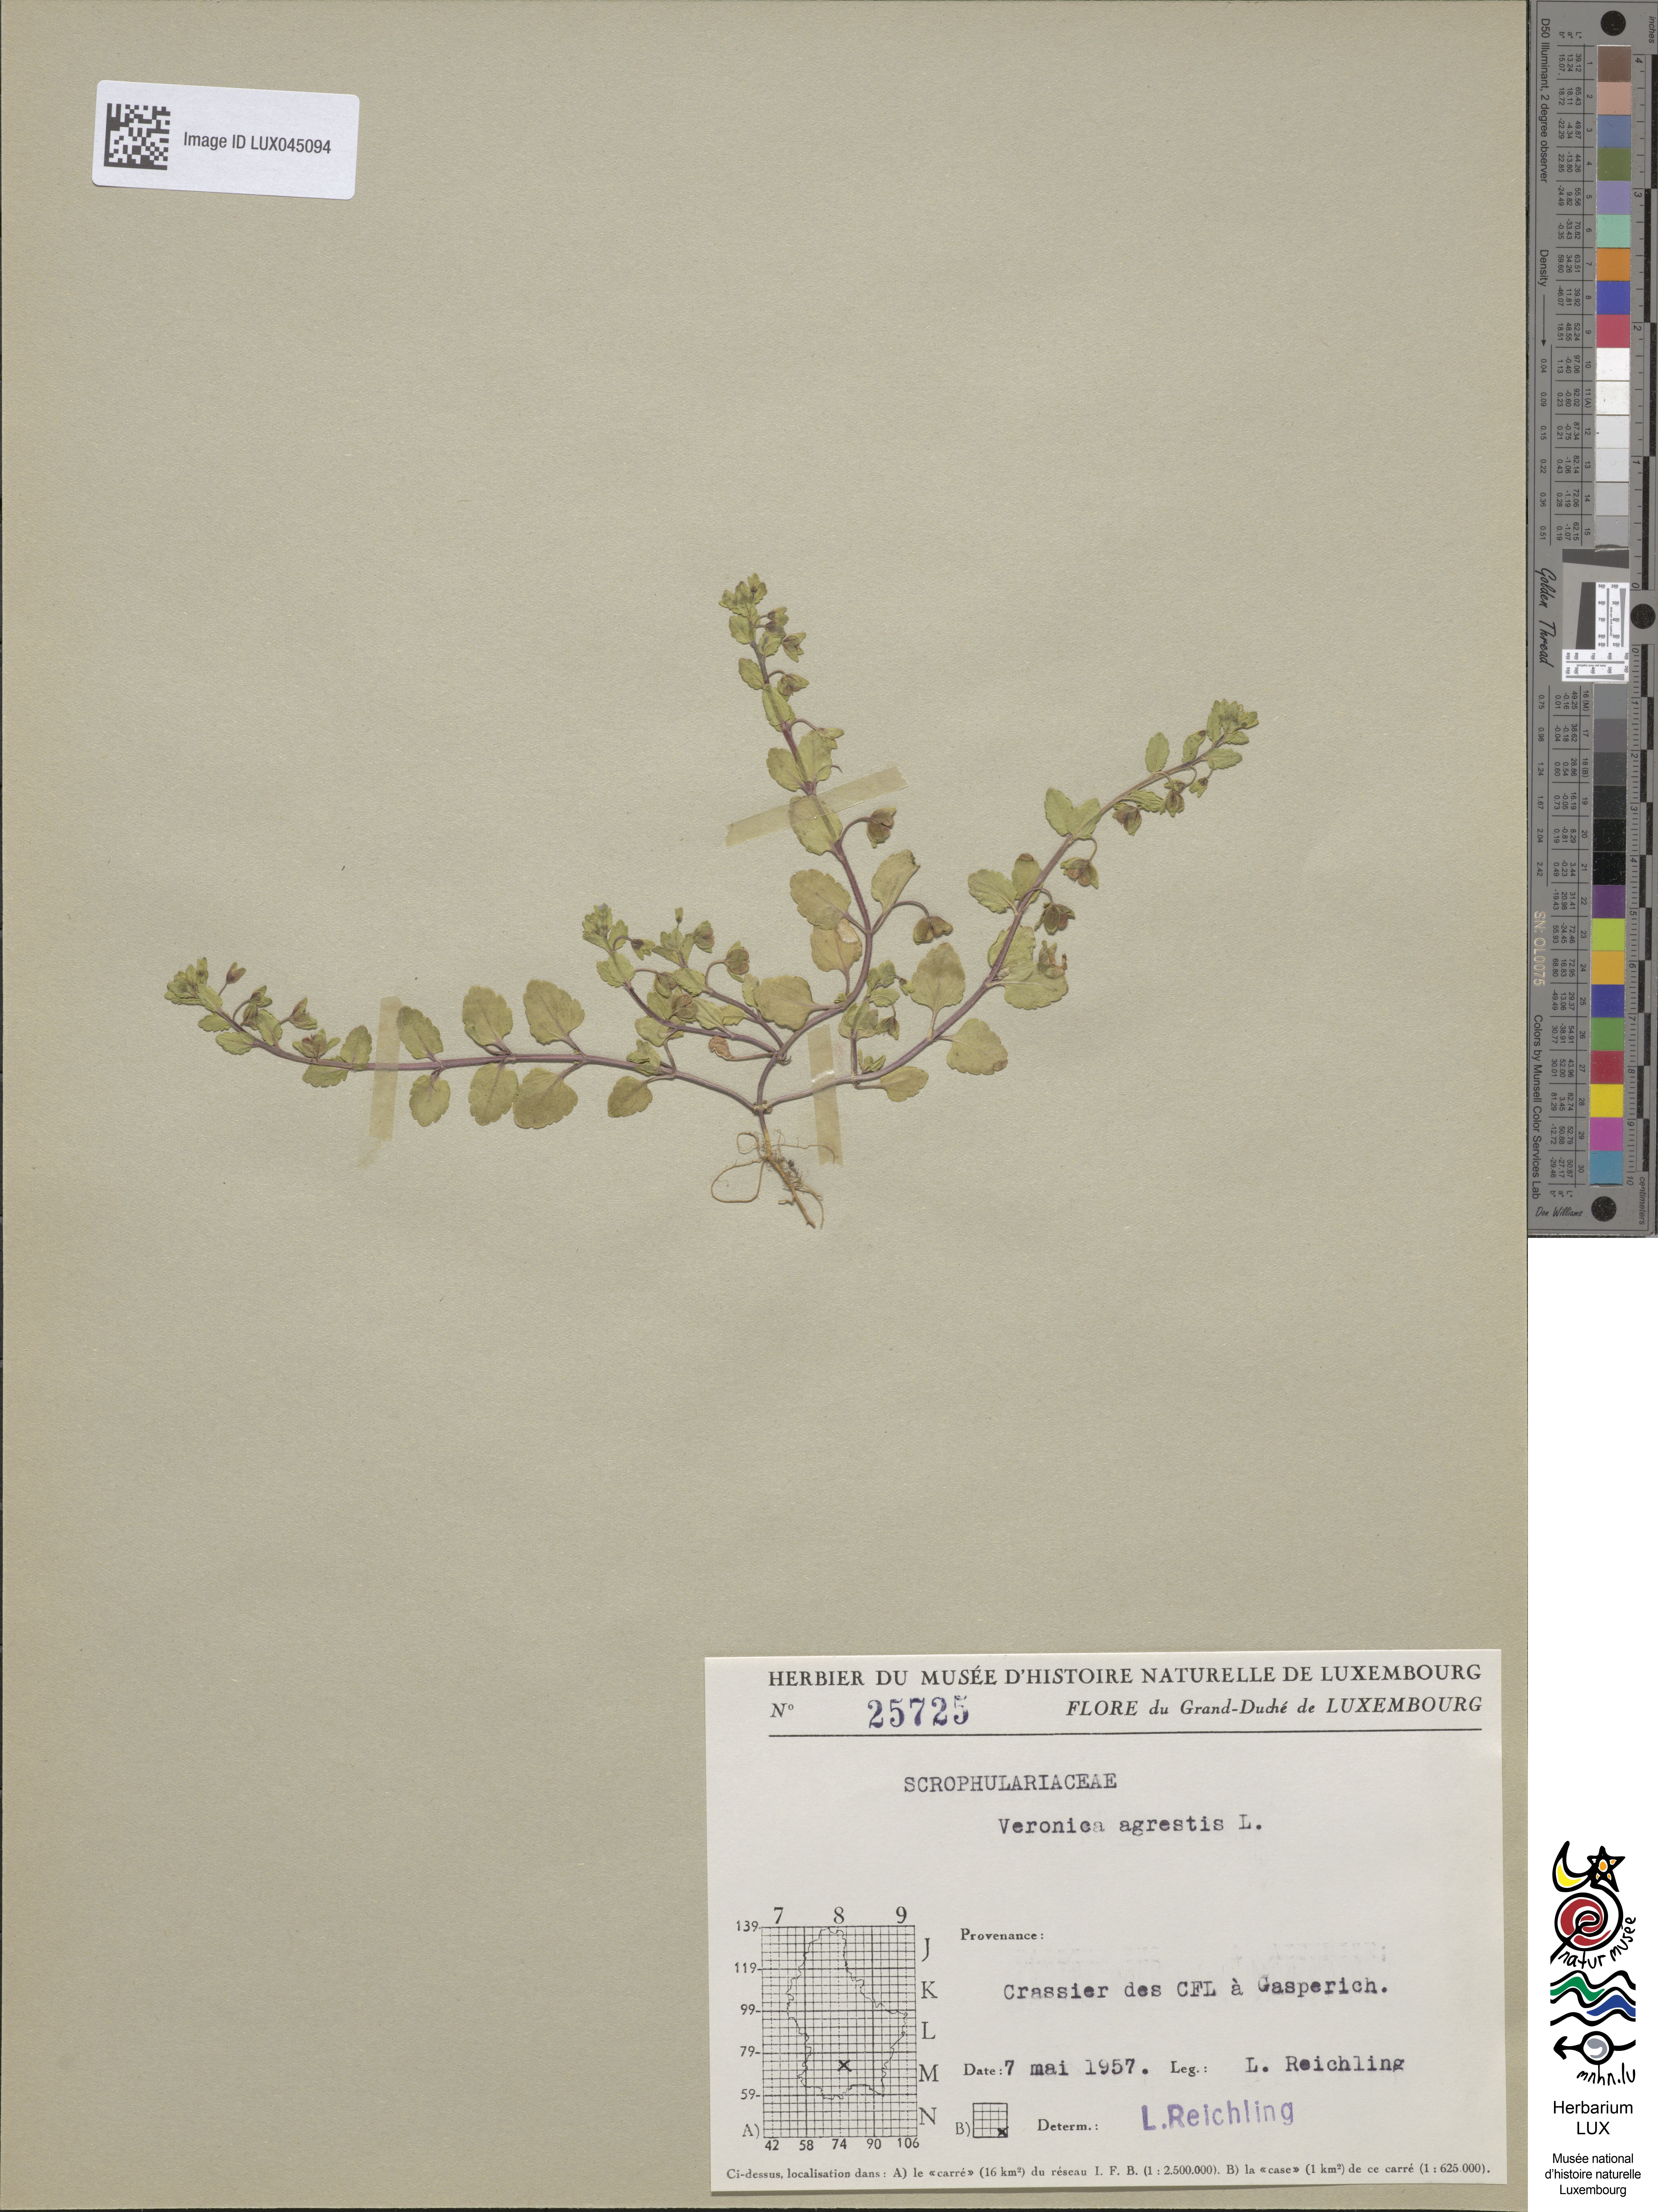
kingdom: Plantae
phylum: Tracheophyta
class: Magnoliopsida
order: Lamiales
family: Plantaginaceae
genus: Veronica
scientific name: Veronica agrestis
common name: Green field-speedwell
